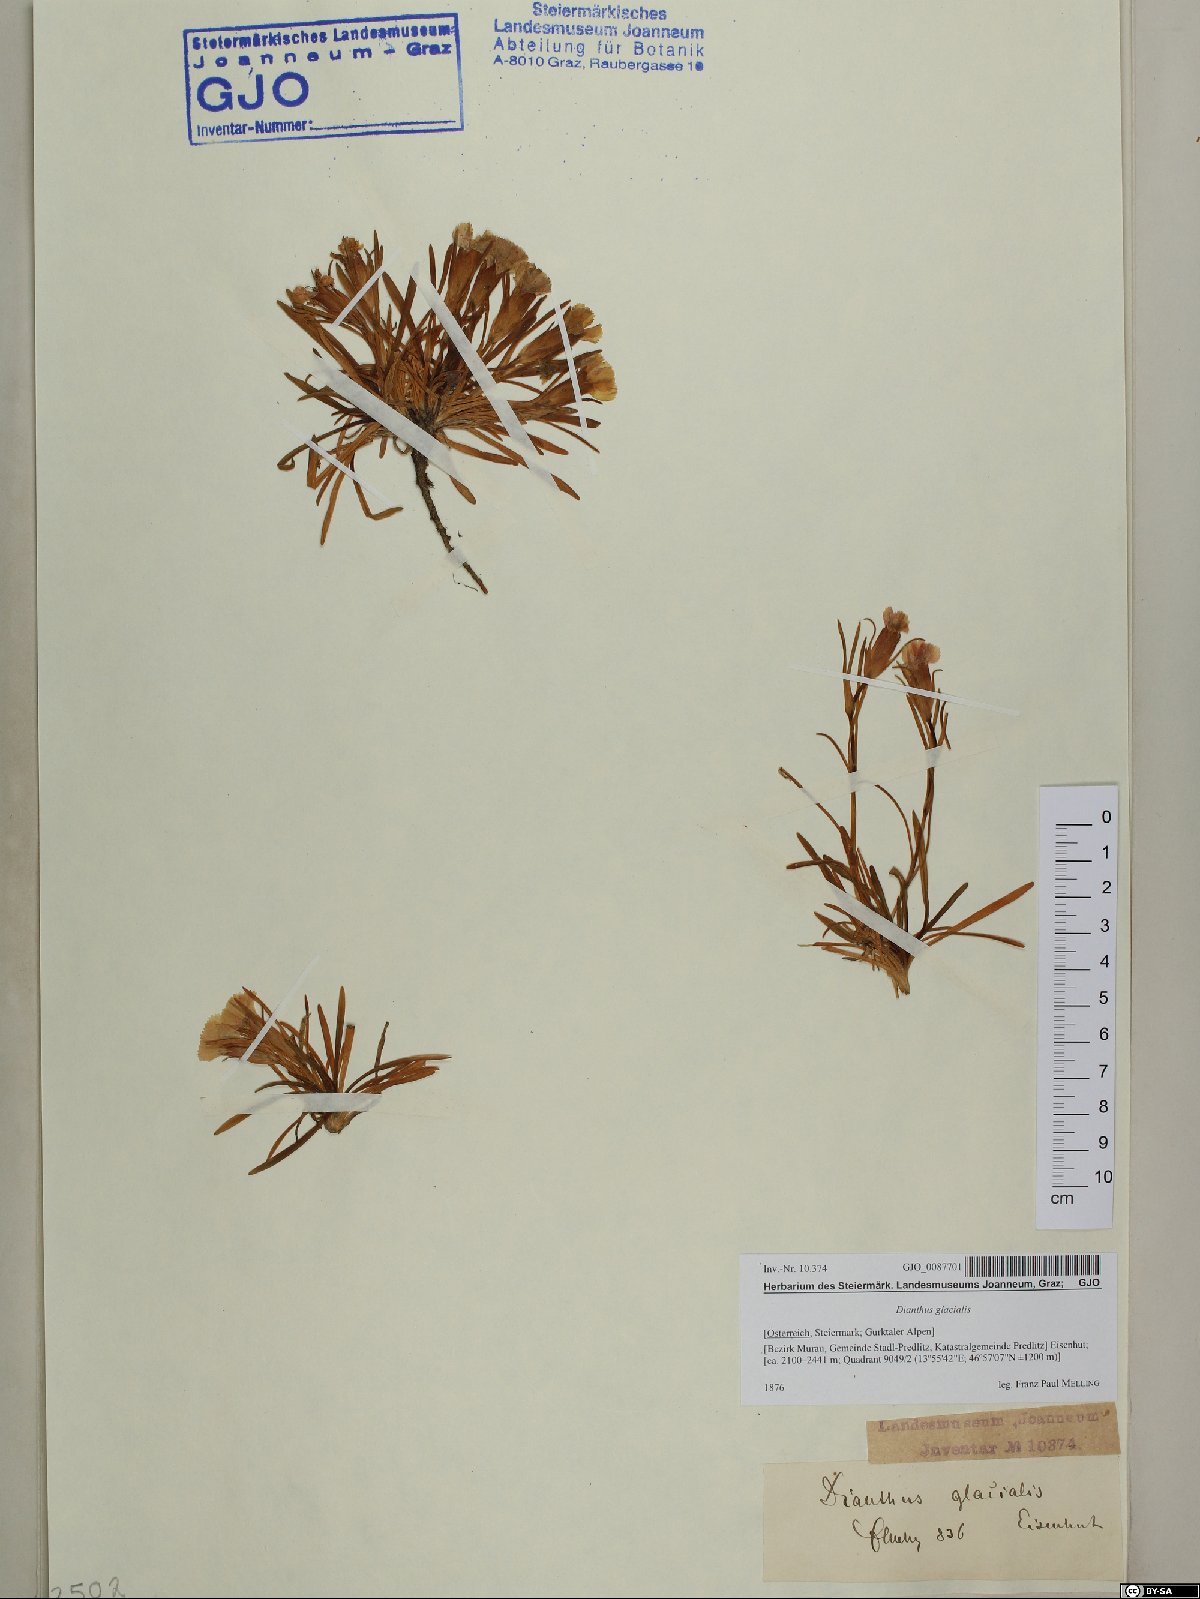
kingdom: Plantae
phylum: Tracheophyta
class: Magnoliopsida
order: Caryophyllales
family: Caryophyllaceae
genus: Dianthus
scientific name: Dianthus glacialis
